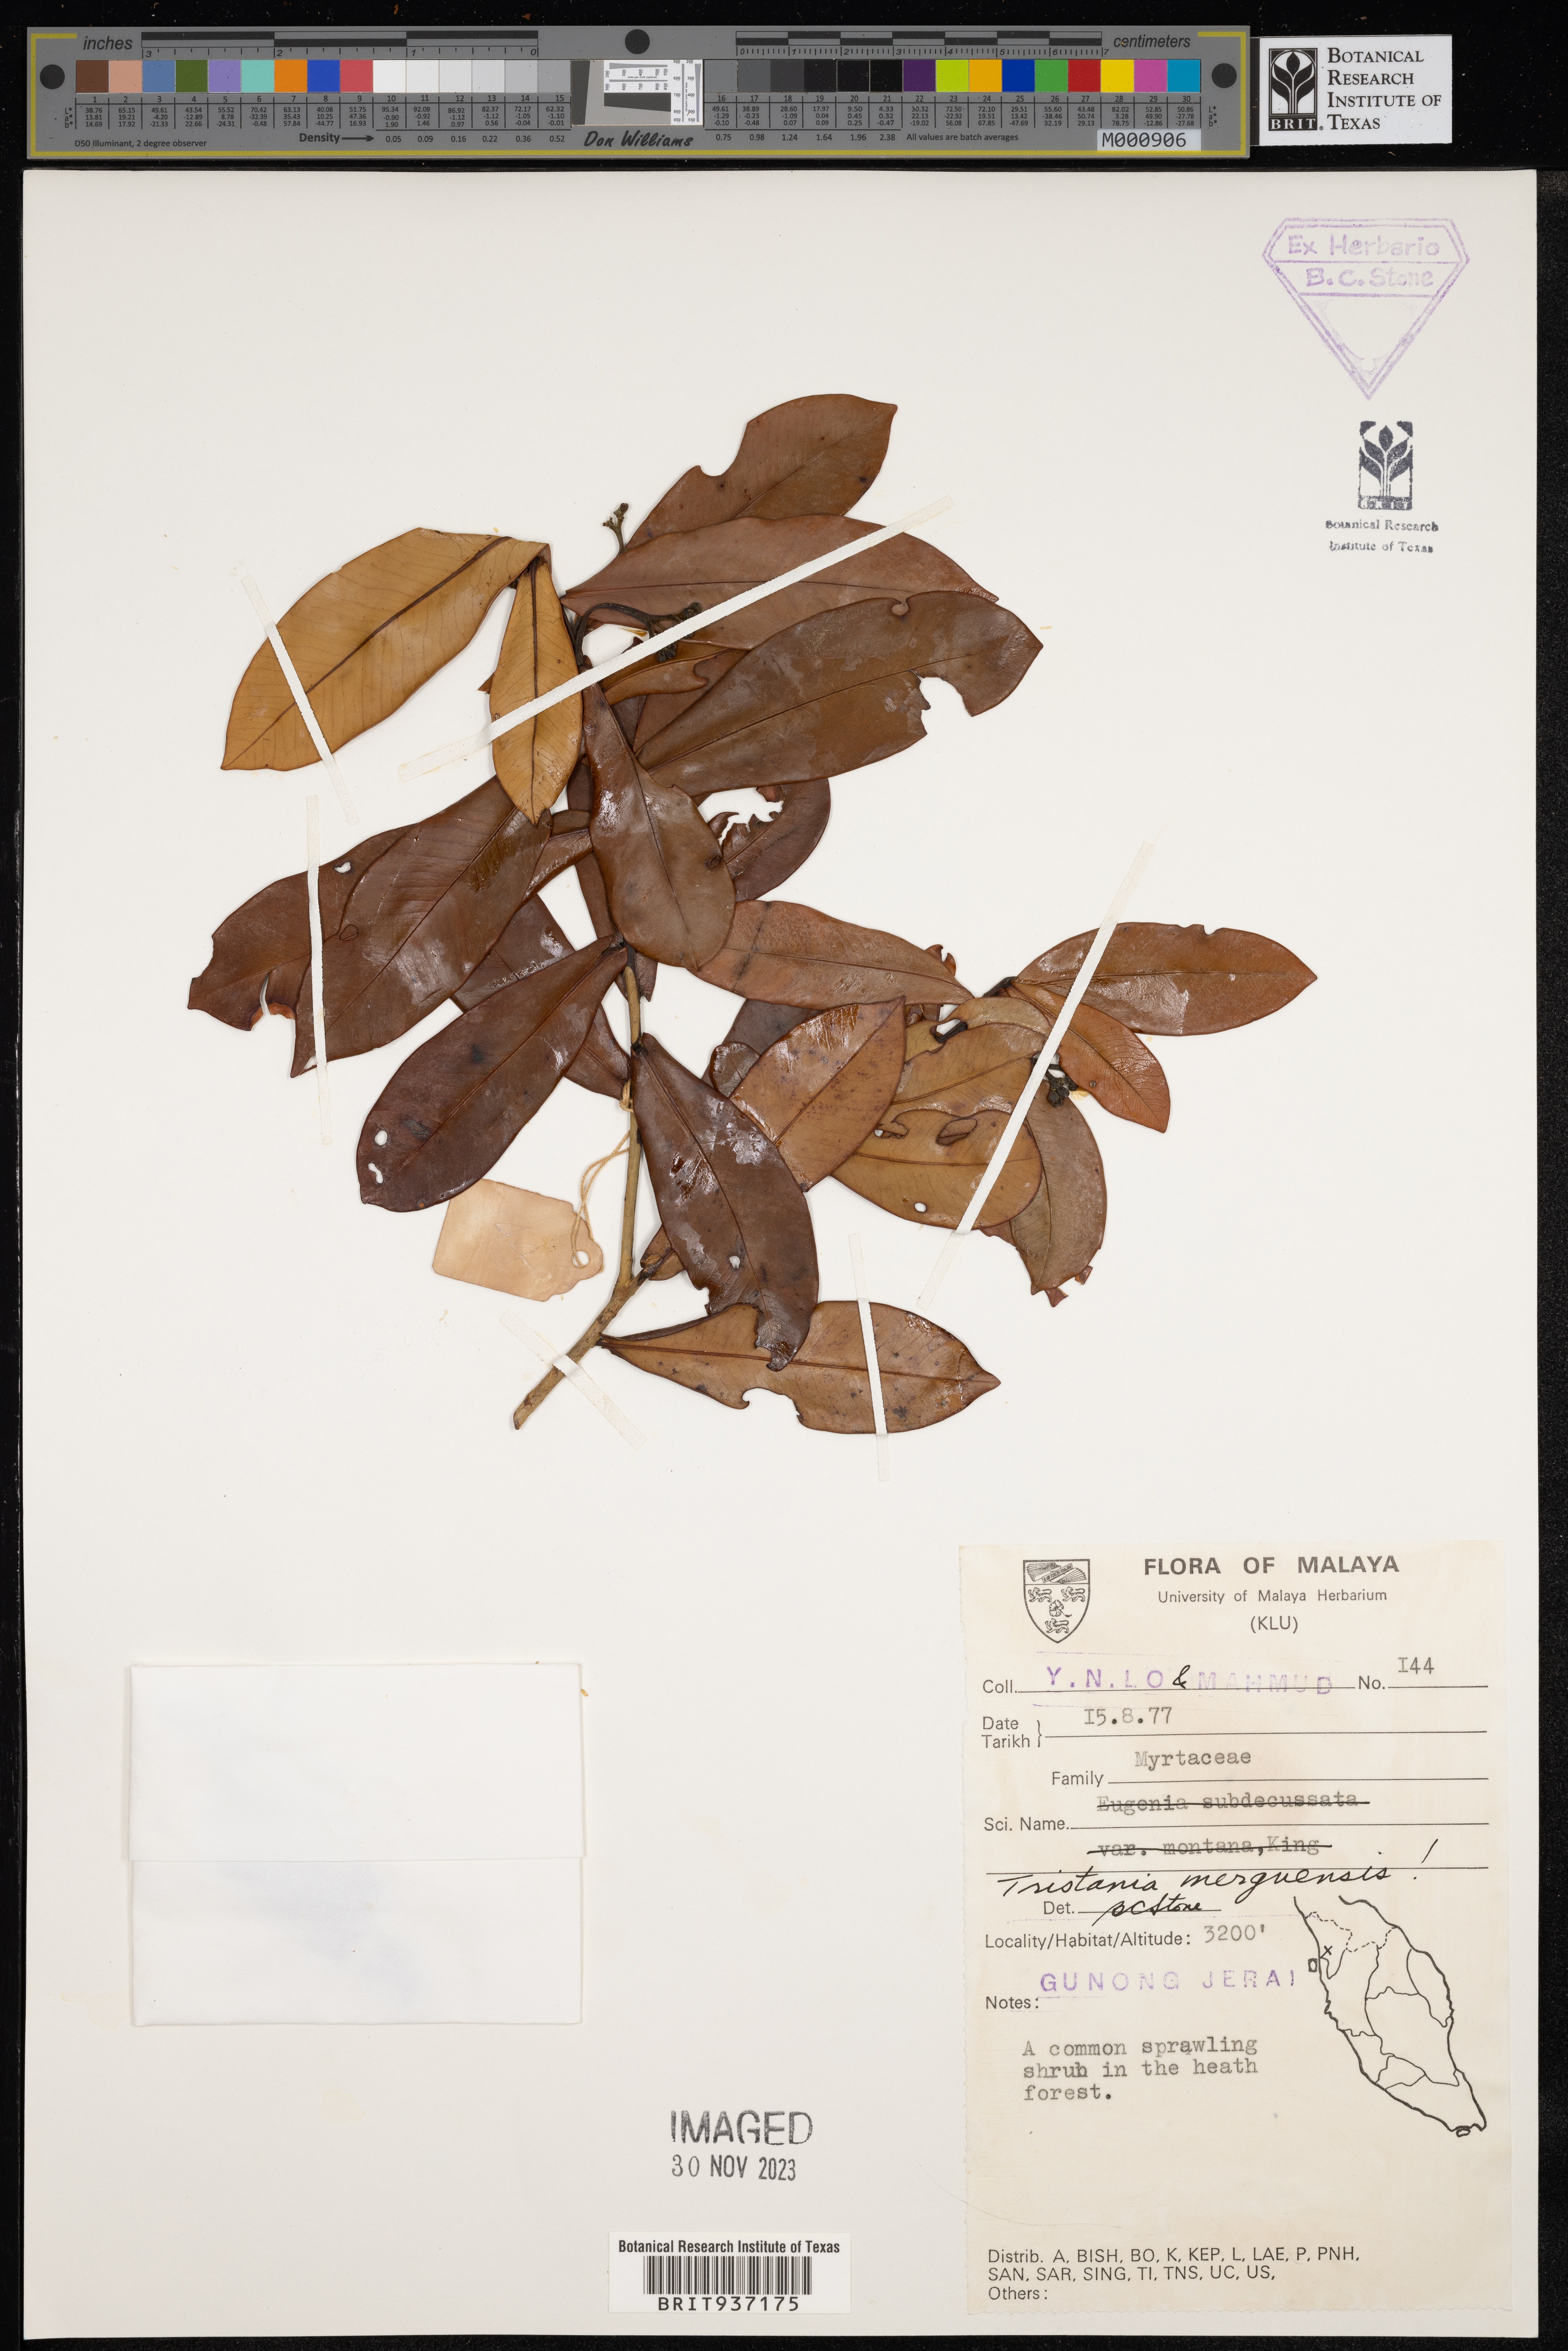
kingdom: Plantae
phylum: Tracheophyta
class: Magnoliopsida
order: Myrtales
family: Myrtaceae
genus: Tristaniopsis
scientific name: Tristaniopsis
